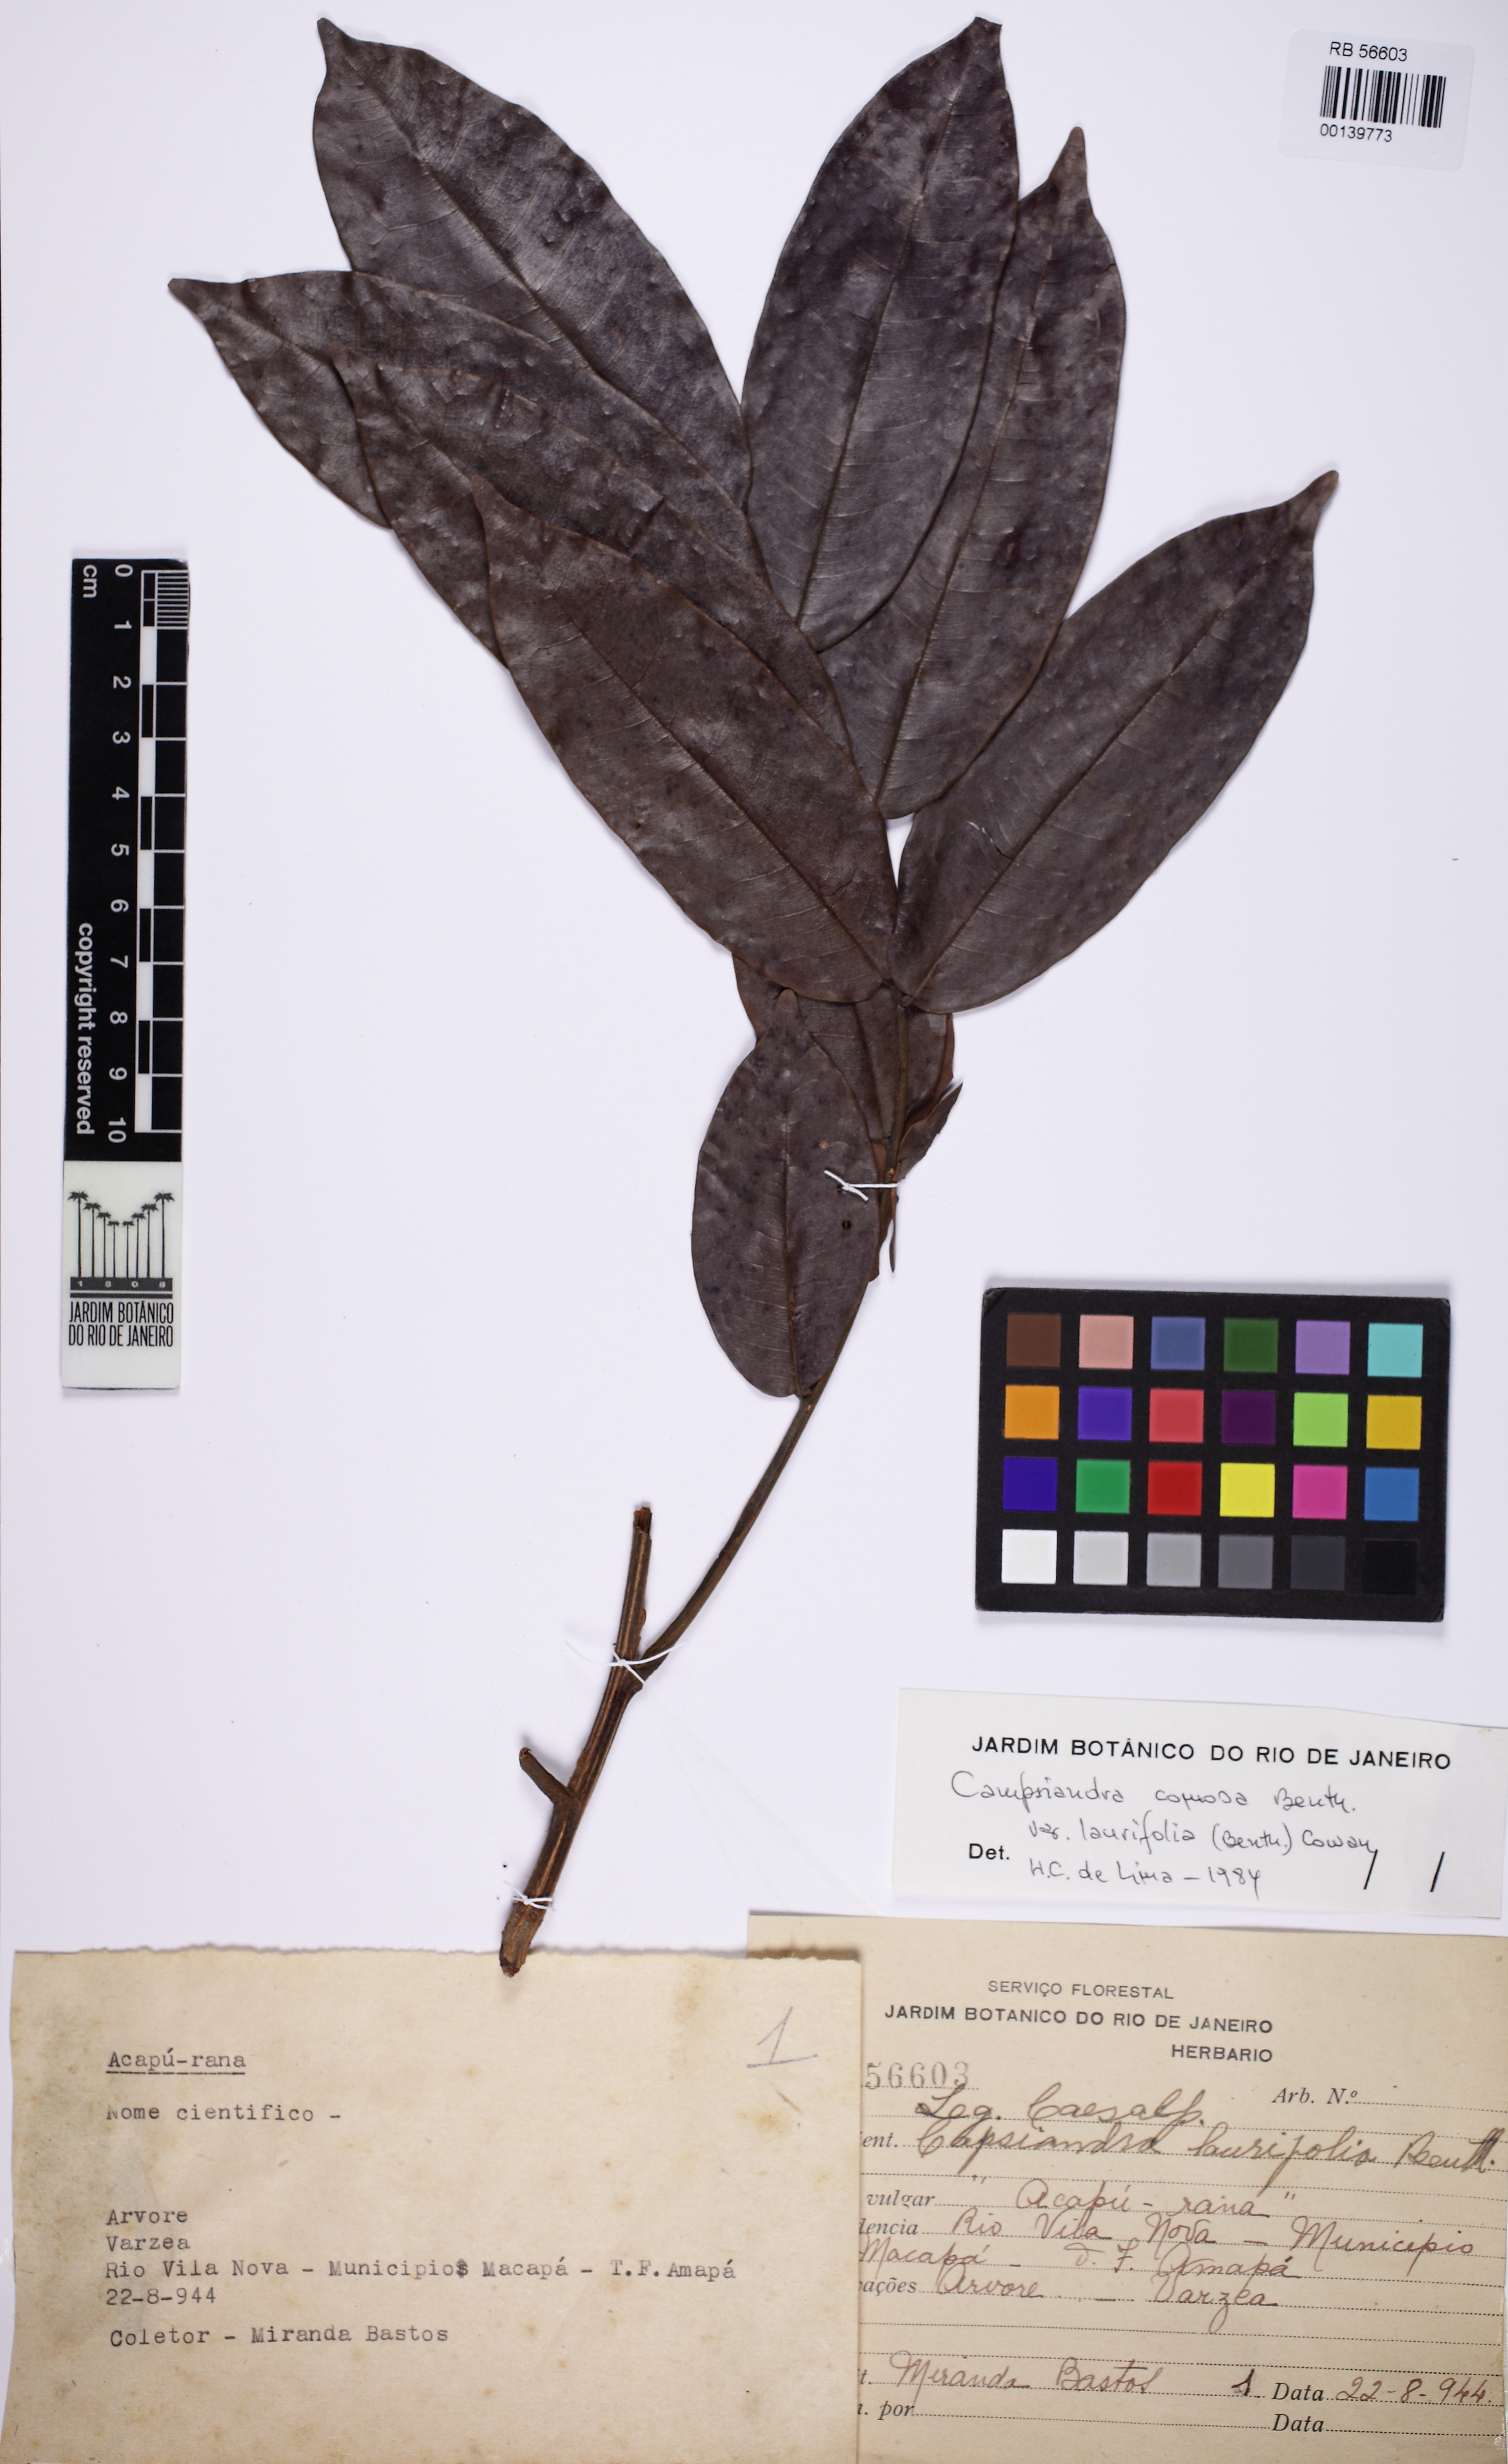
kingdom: Plantae
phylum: Tracheophyta
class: Magnoliopsida
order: Fabales
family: Fabaceae
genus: Campsiandra
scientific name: Campsiandra laurifolia
